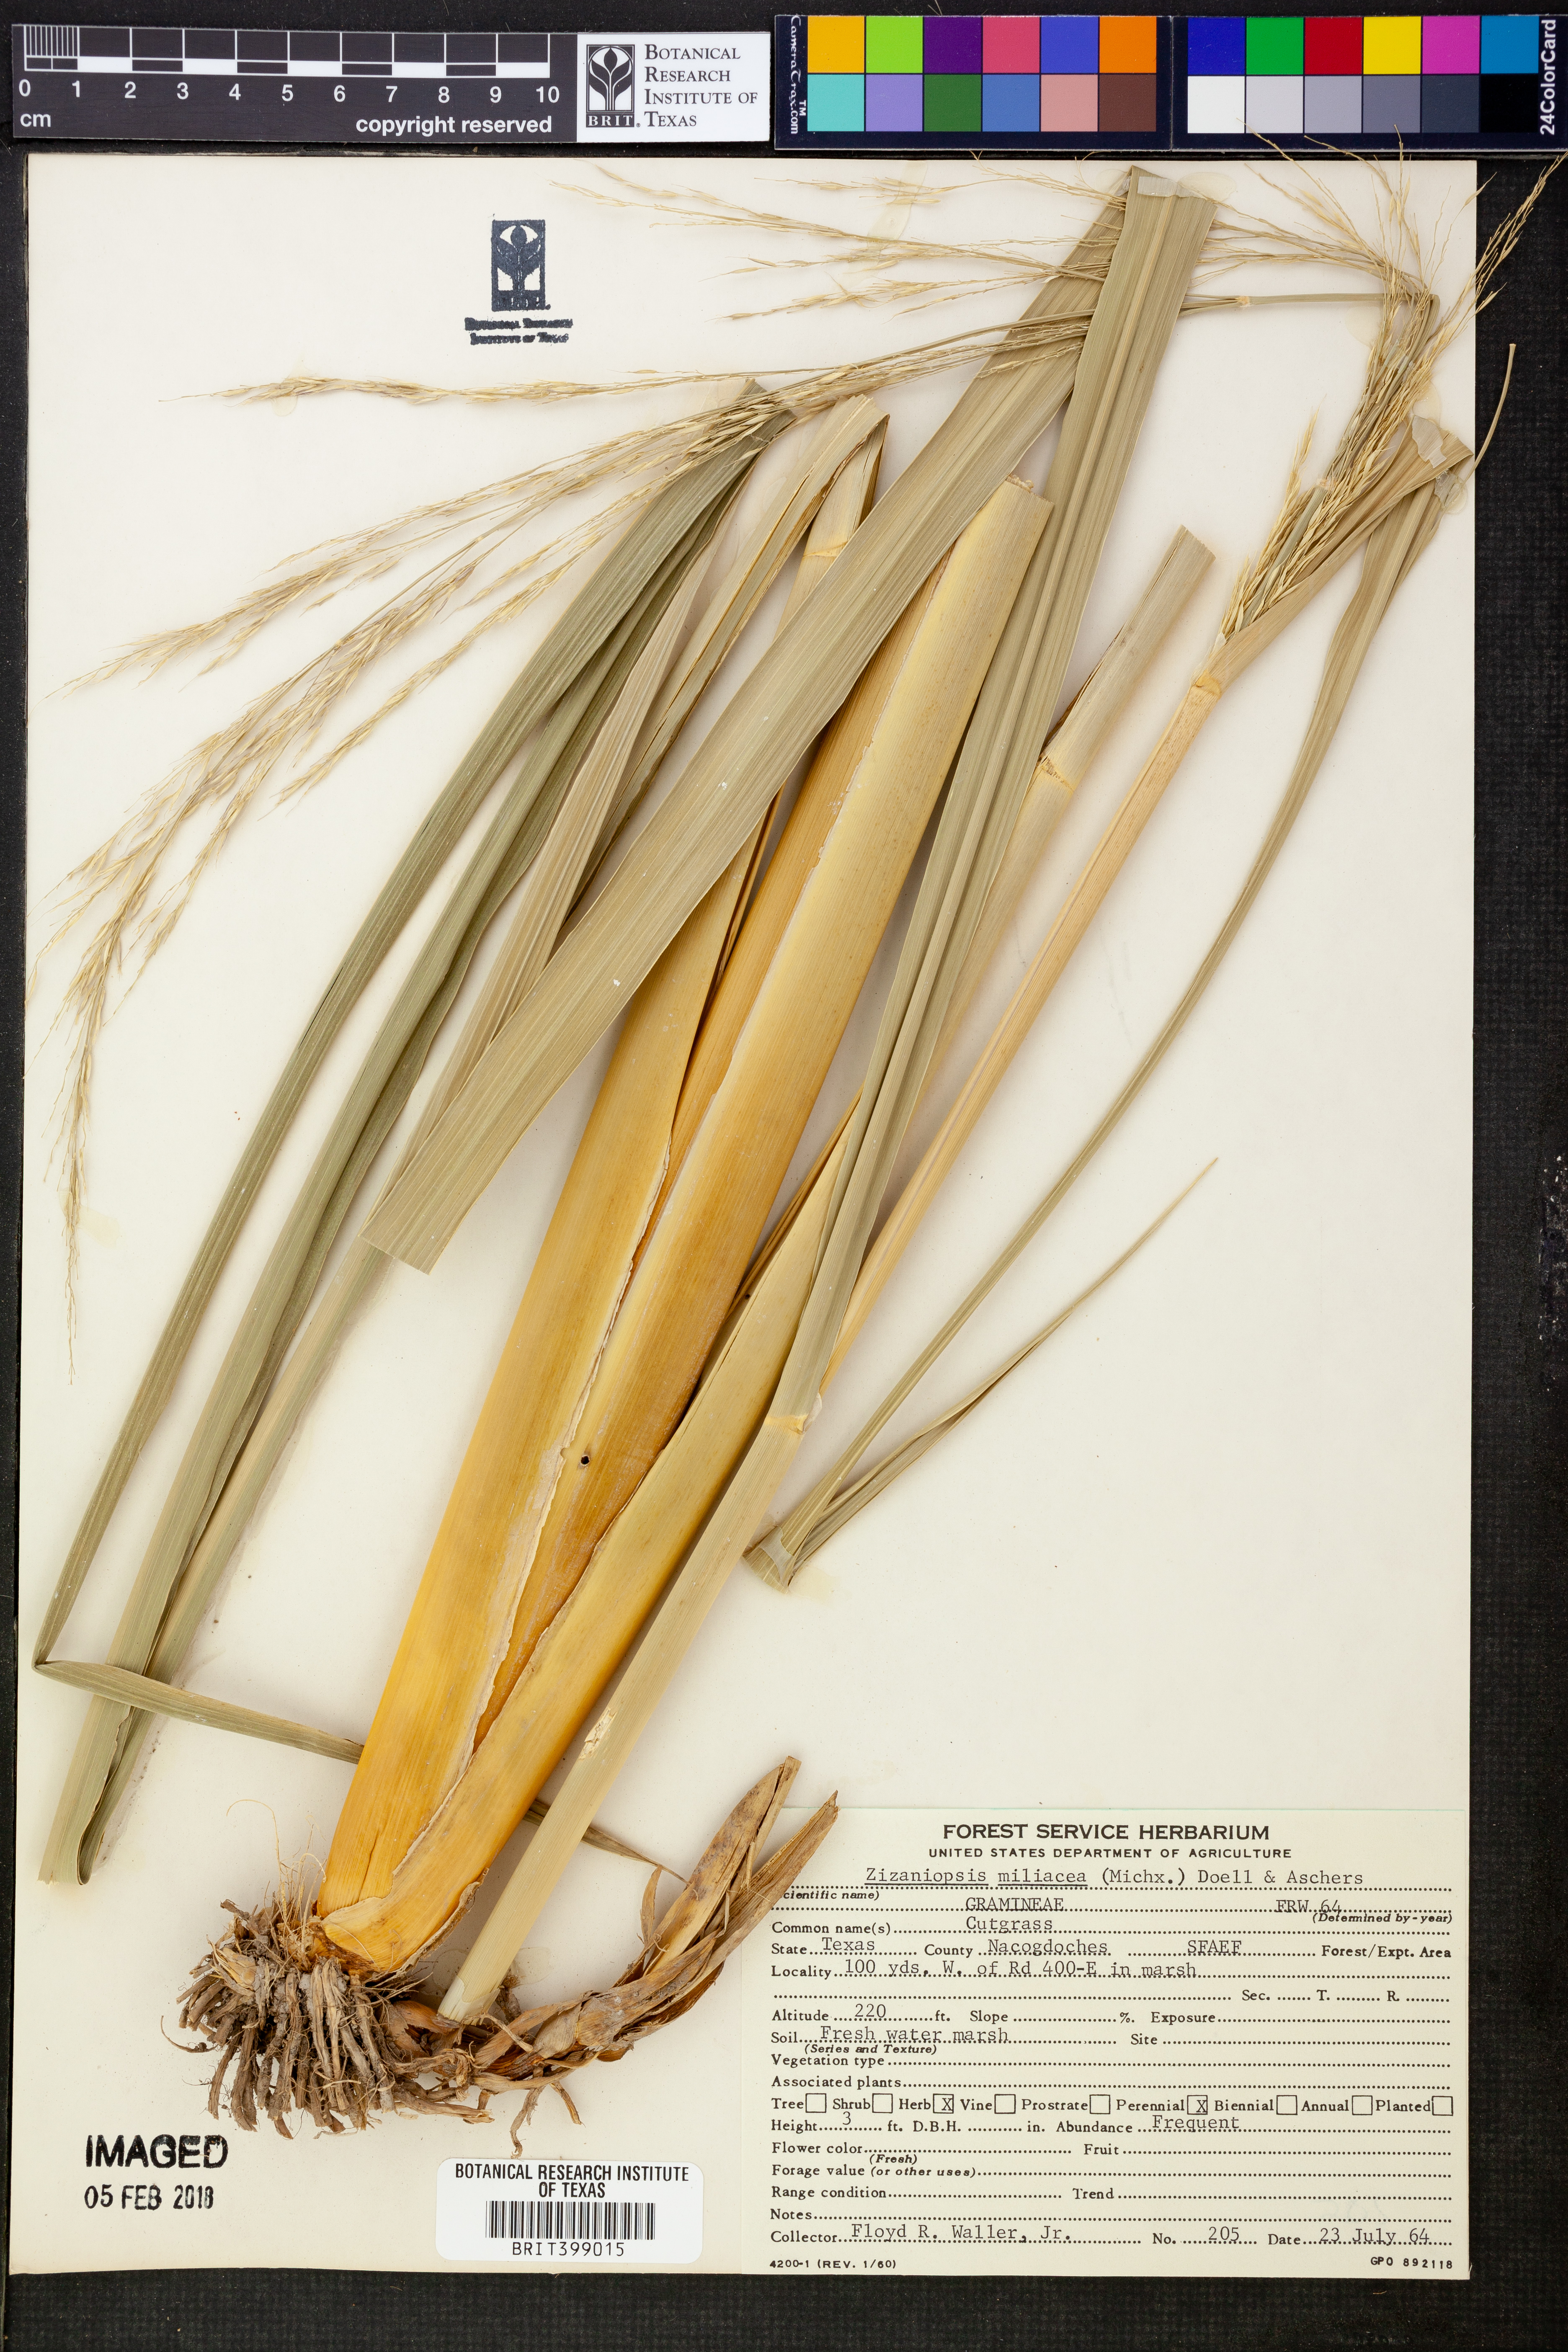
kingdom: Plantae
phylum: Tracheophyta
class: Liliopsida
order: Poales
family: Poaceae
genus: Zizaniopsis
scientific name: Zizaniopsis miliacea
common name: Giant-cutgrass
